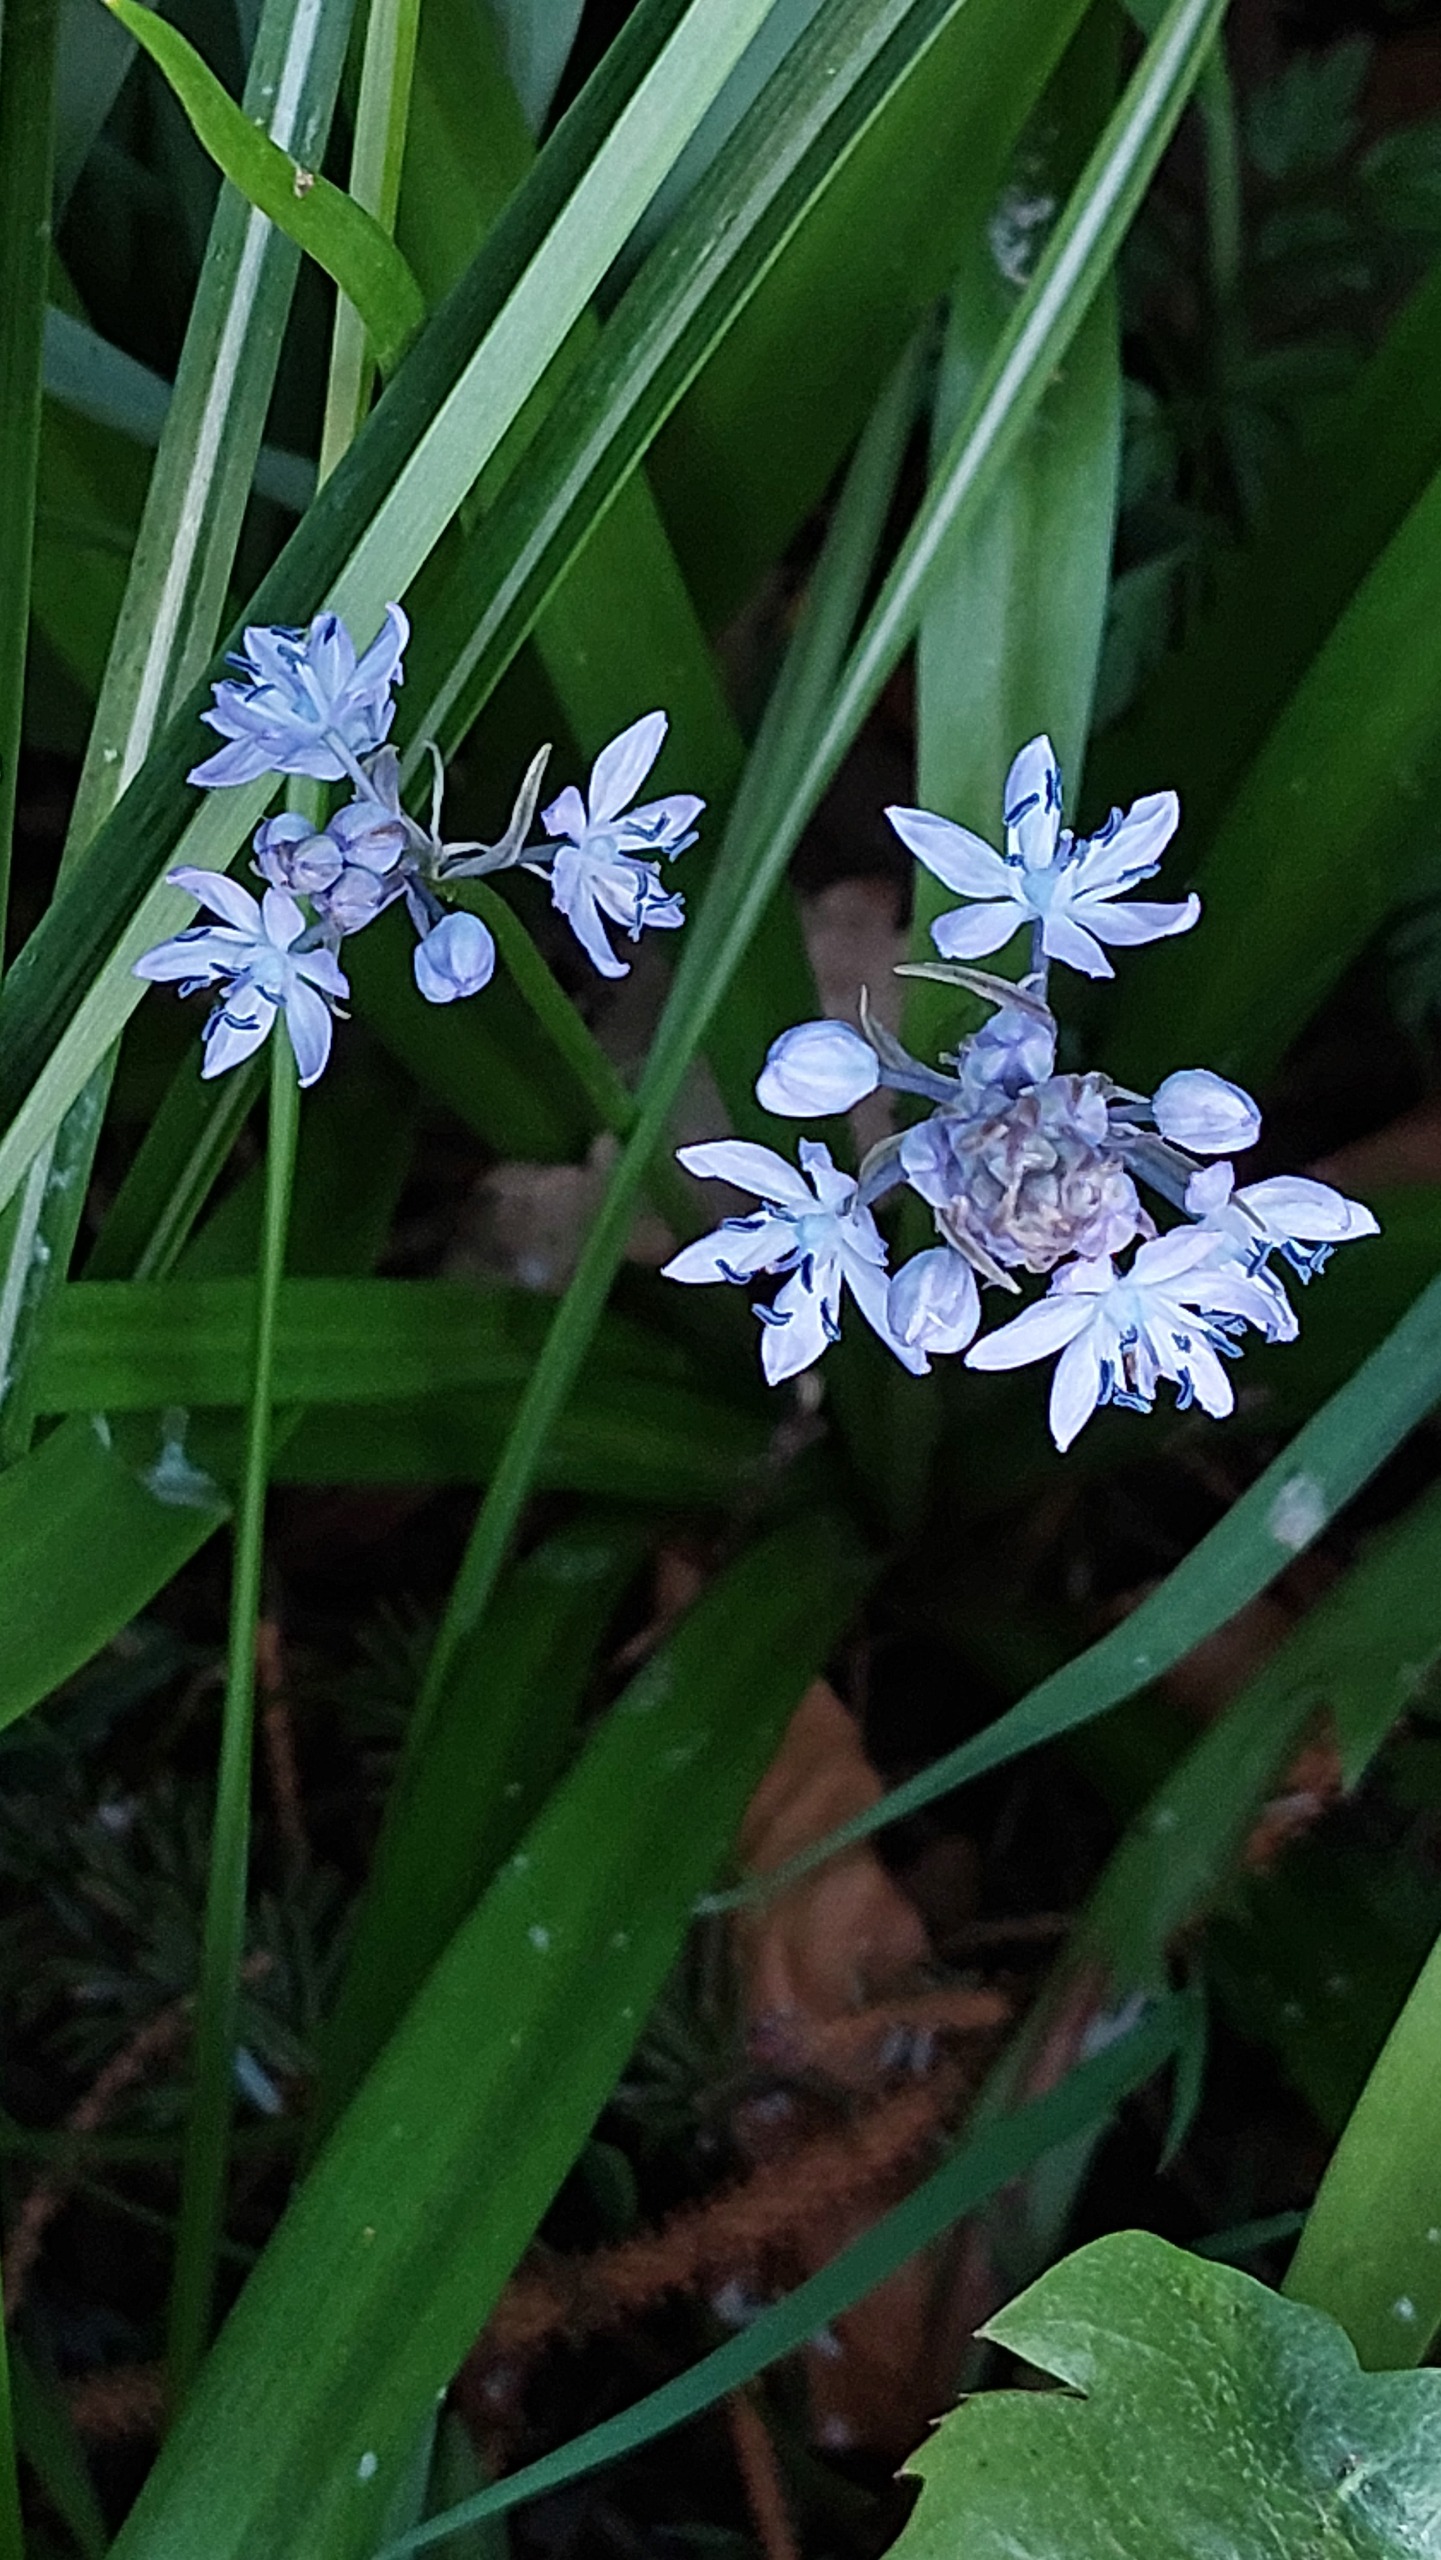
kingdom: Plantae
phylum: Tracheophyta
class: Liliopsida
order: Asparagales
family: Asparagaceae
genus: Hyacinthoides
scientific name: Hyacinthoides italica
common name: Italiensk skilla
